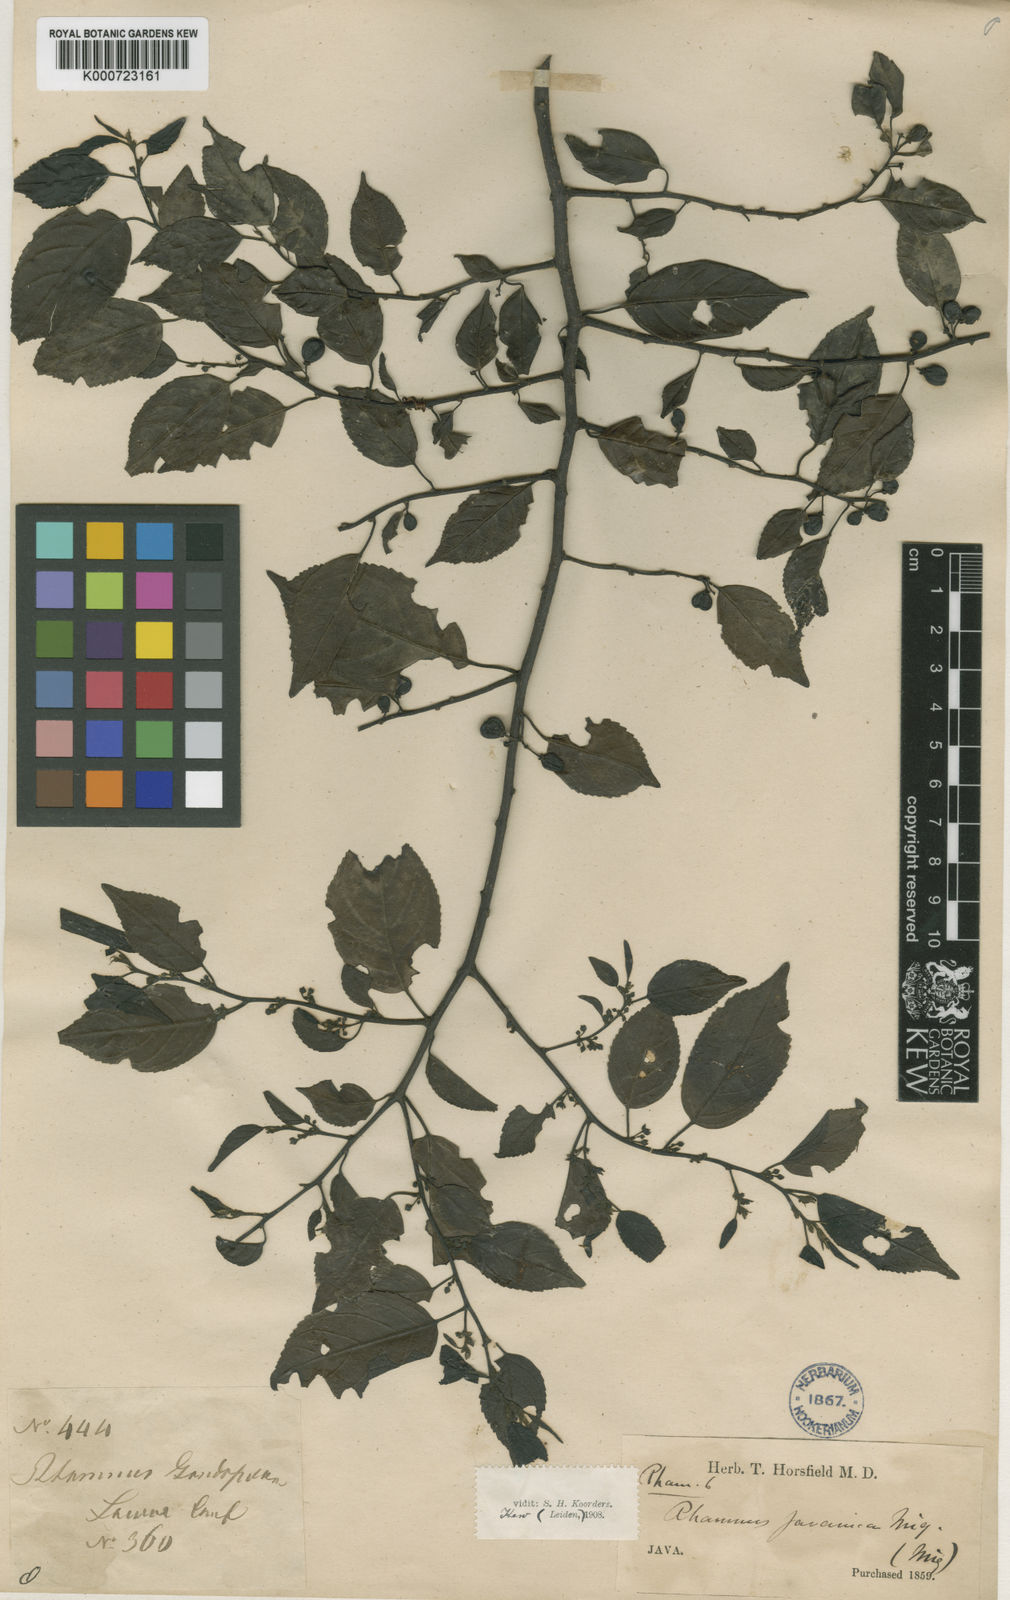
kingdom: Plantae
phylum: Tracheophyta
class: Magnoliopsida
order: Rosales
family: Rhamnaceae
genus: Rhamnus
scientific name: Rhamnus javanica
